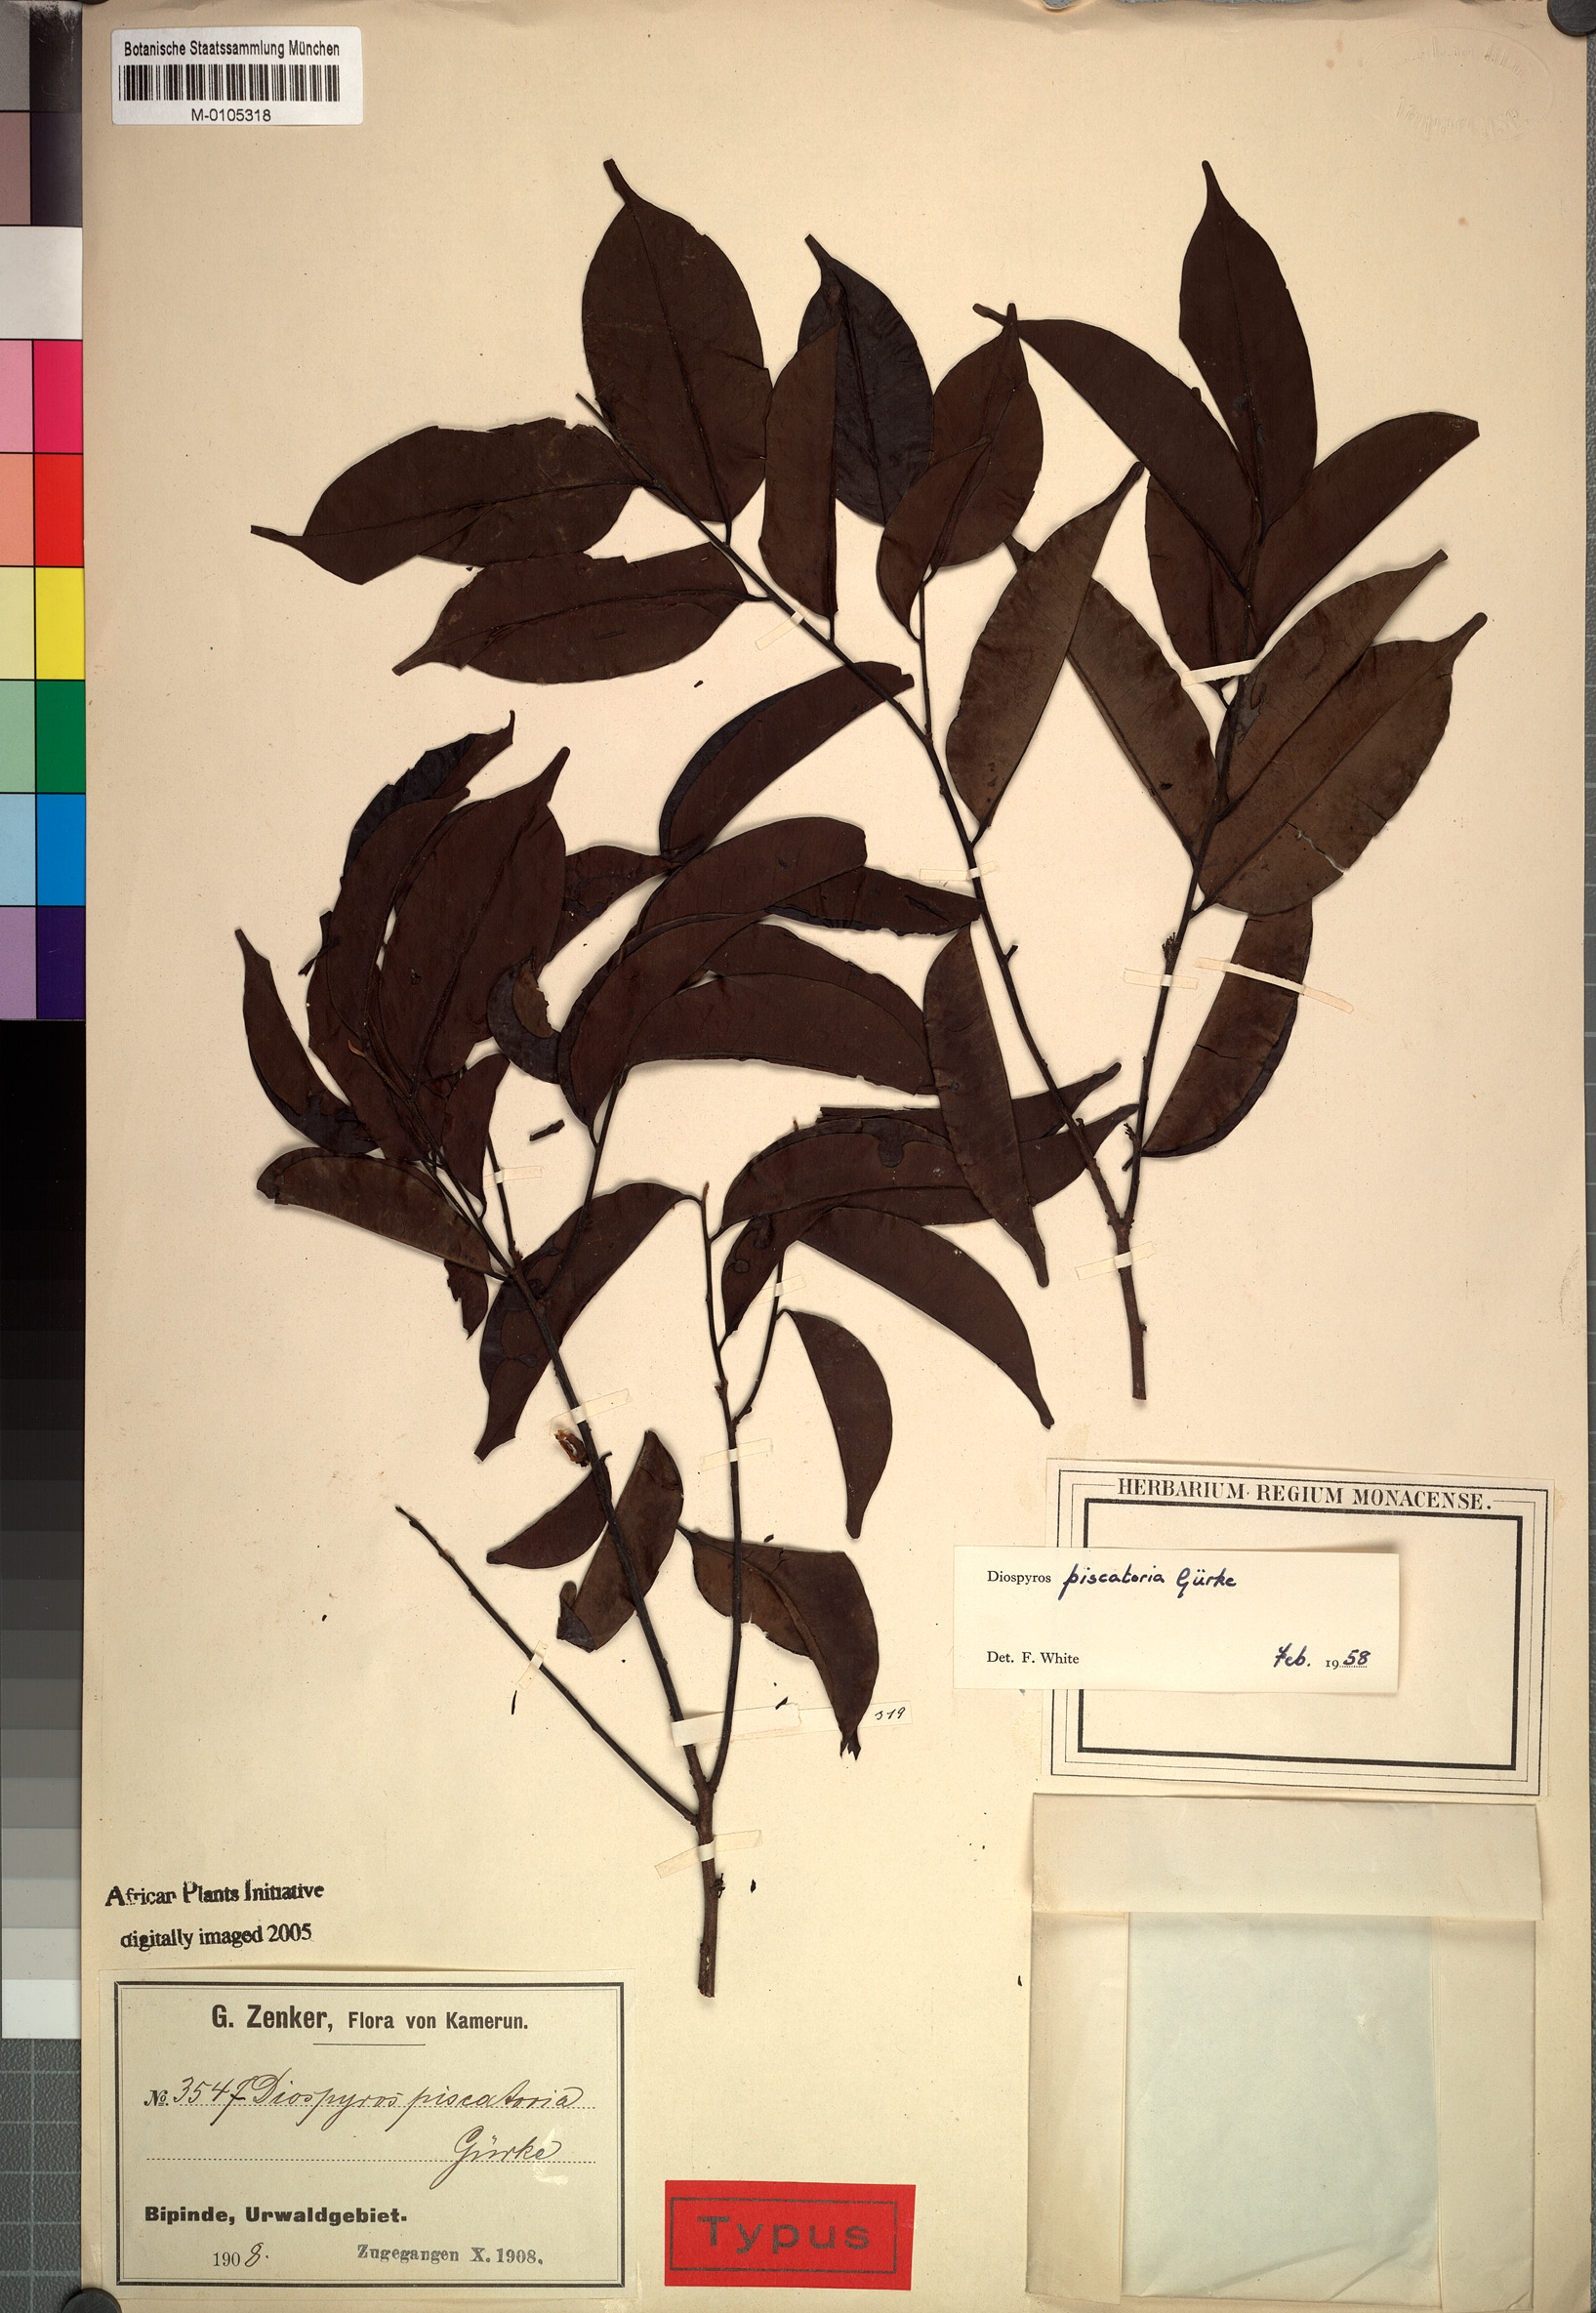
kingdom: Plantae
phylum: Tracheophyta
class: Magnoliopsida
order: Ericales
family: Ebenaceae
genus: Diospyros
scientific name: Diospyros piscatoria
